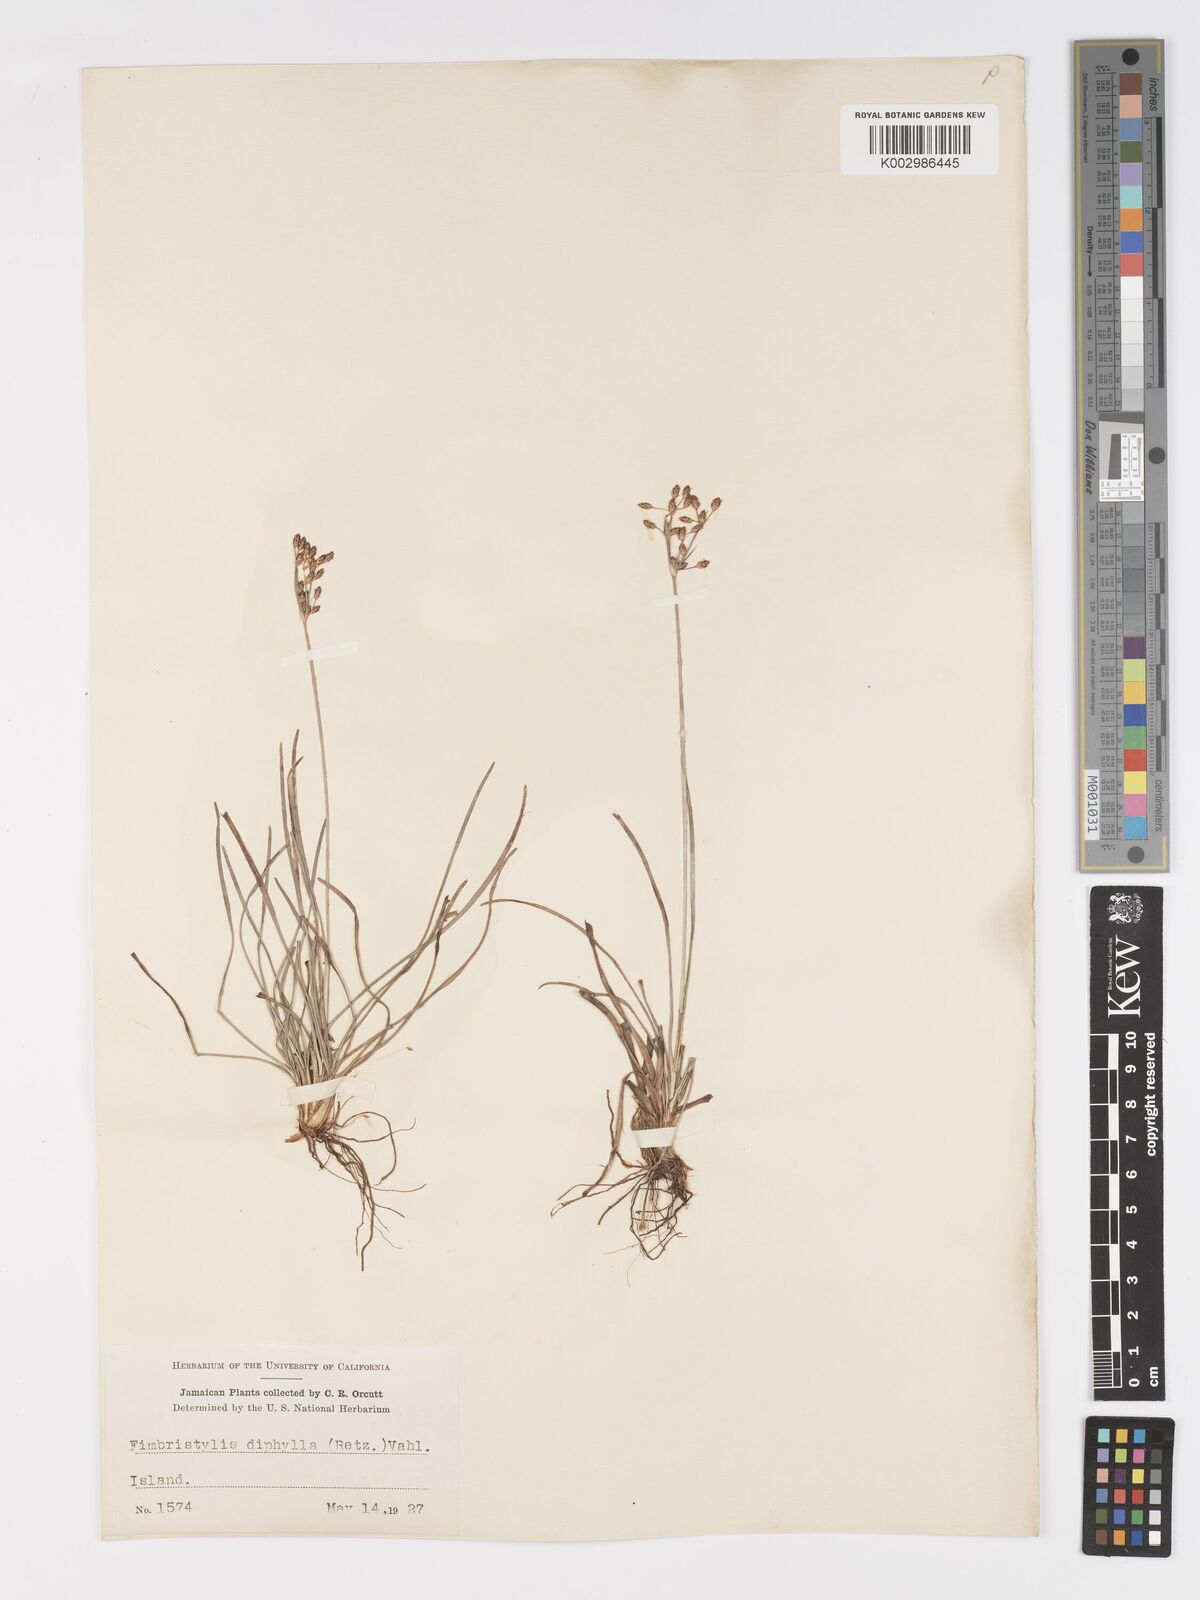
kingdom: Plantae
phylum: Tracheophyta
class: Liliopsida
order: Poales
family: Cyperaceae
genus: Fimbristylis
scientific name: Fimbristylis dichotoma
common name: Forked fimbry
